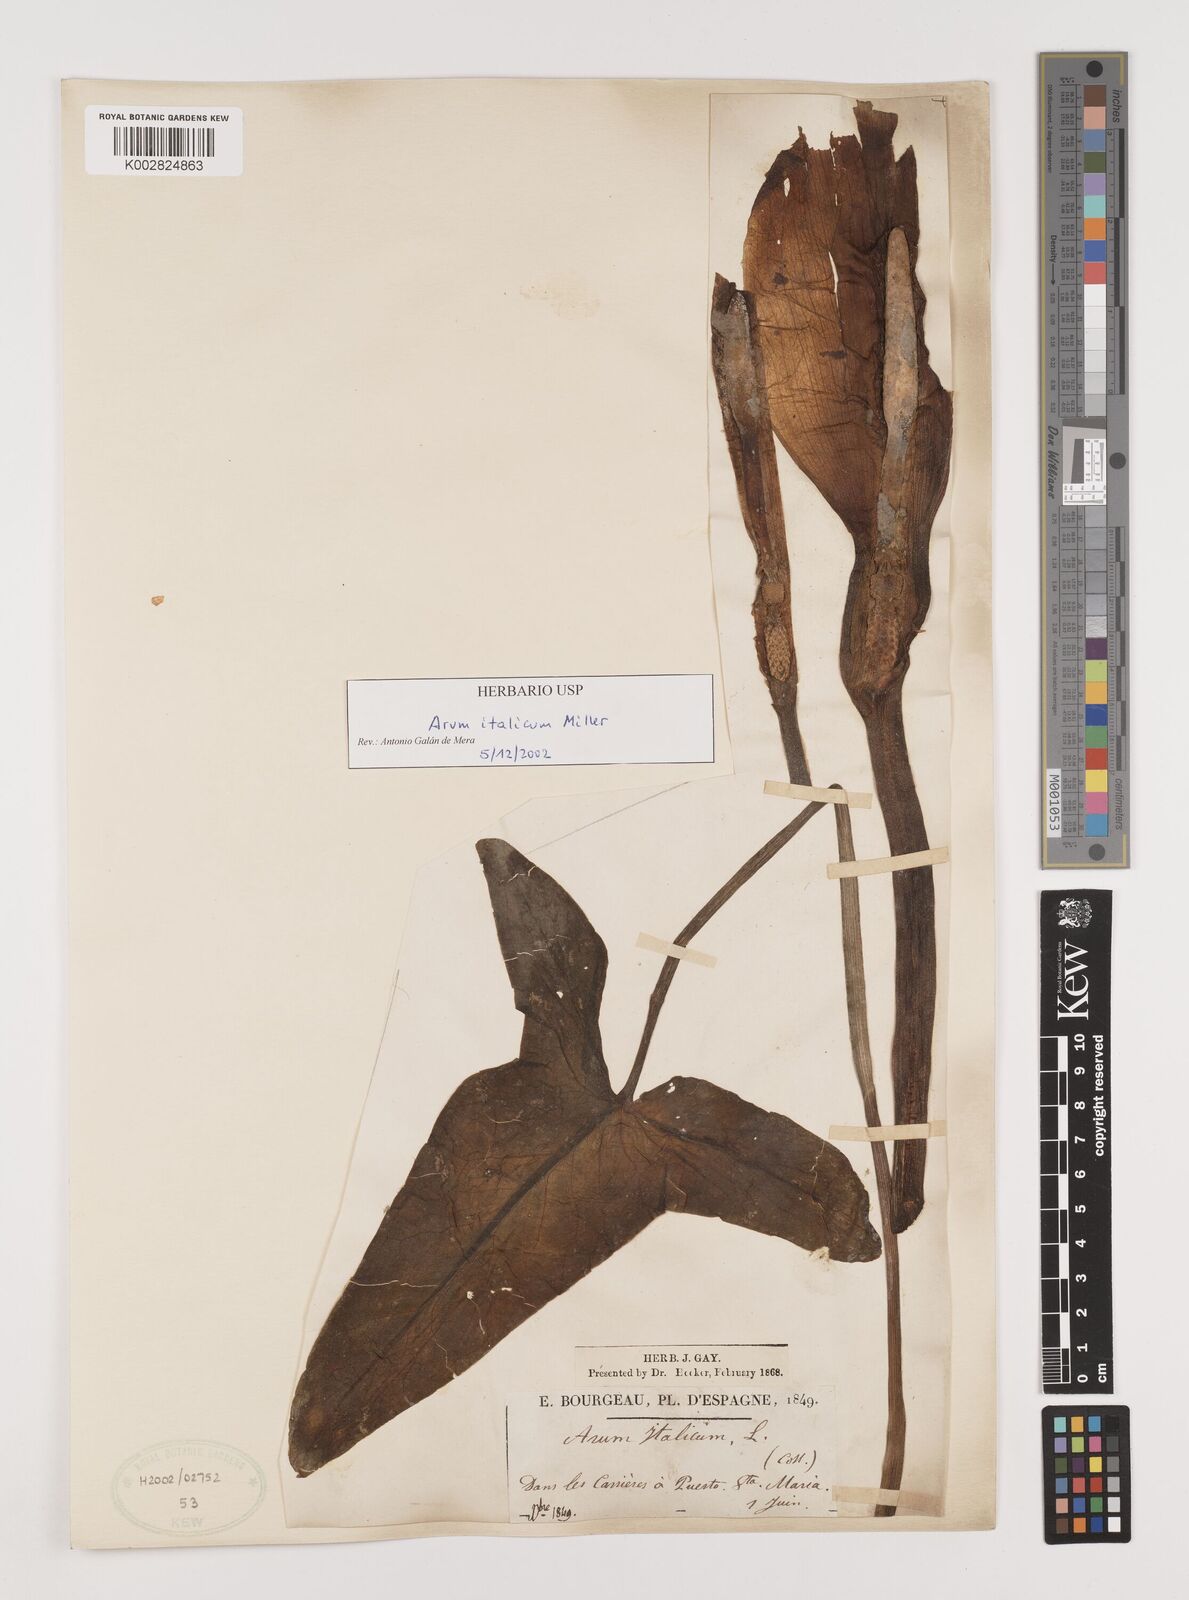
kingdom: Plantae
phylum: Tracheophyta
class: Liliopsida
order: Alismatales
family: Araceae
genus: Arum
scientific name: Arum italicum
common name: Italian lords-and-ladies
